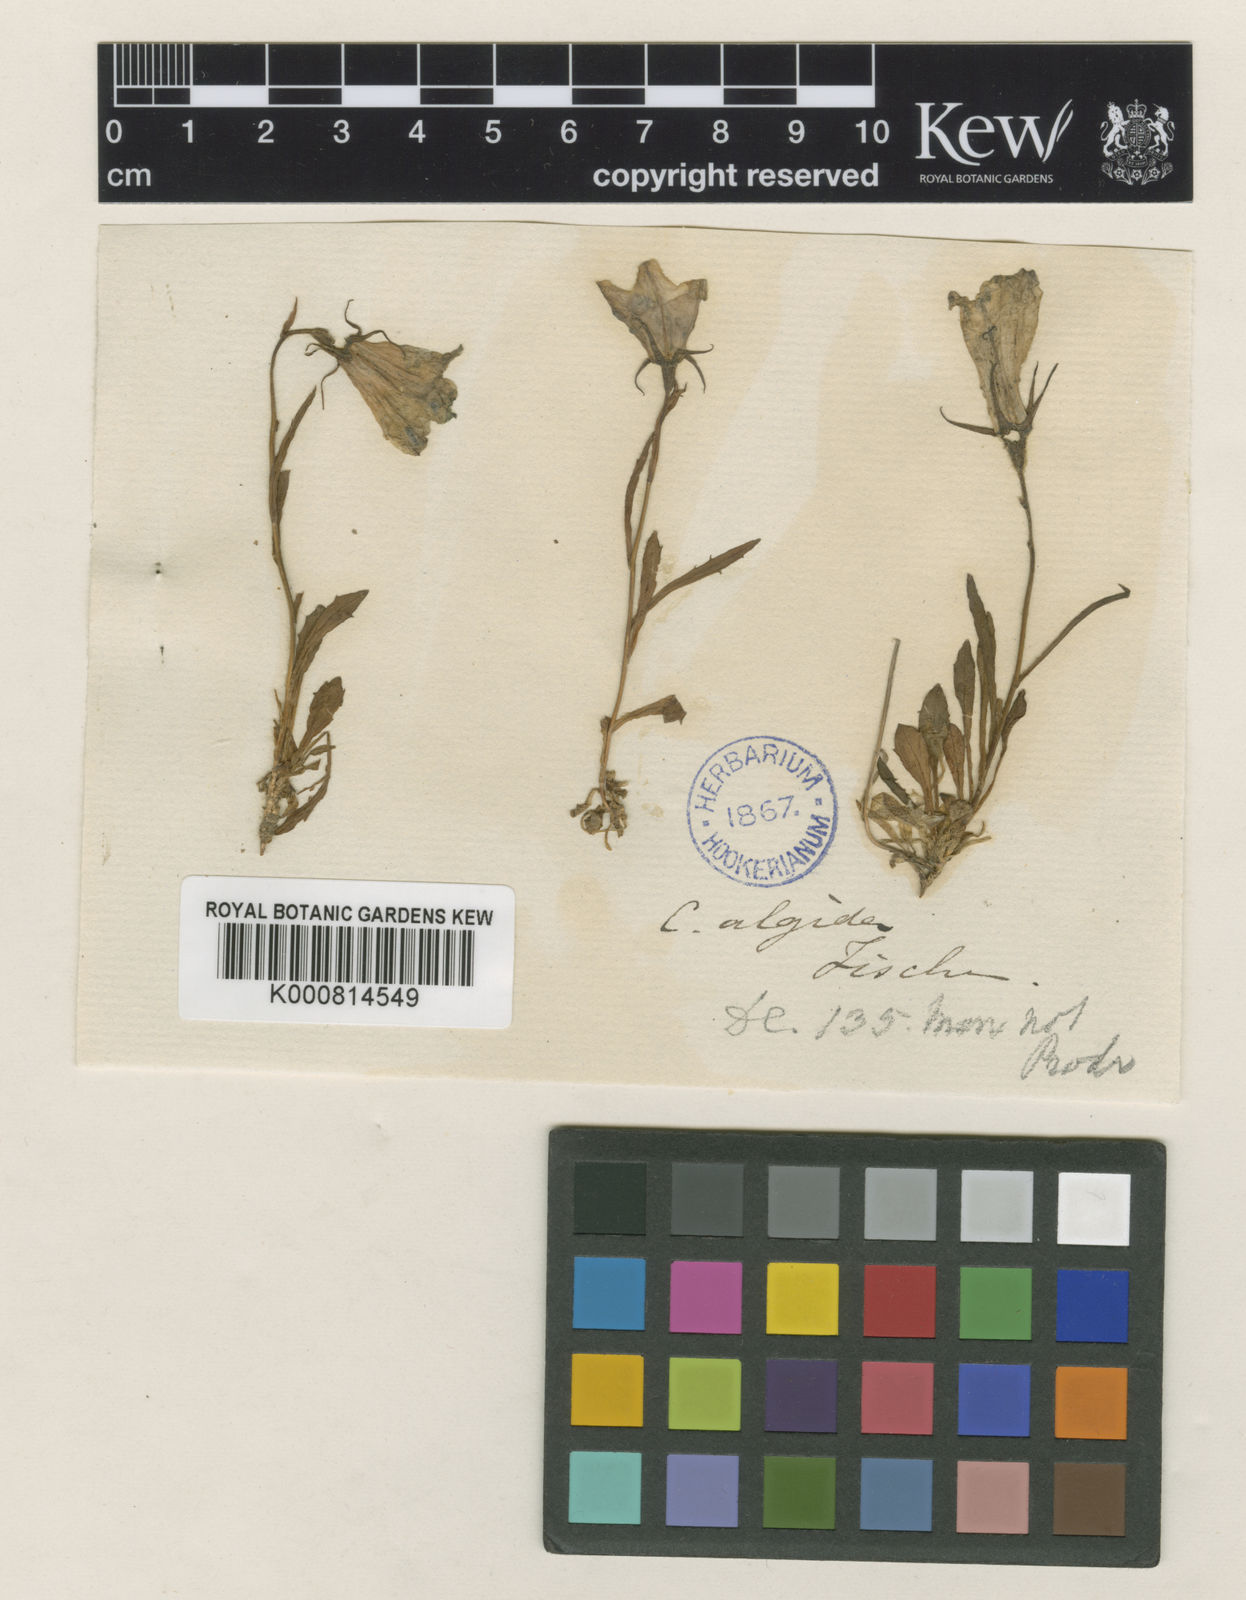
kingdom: Plantae
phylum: Tracheophyta
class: Magnoliopsida
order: Asterales
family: Campanulaceae
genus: Campanula
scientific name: Campanula lasiocarpa
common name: Mountain harebell
